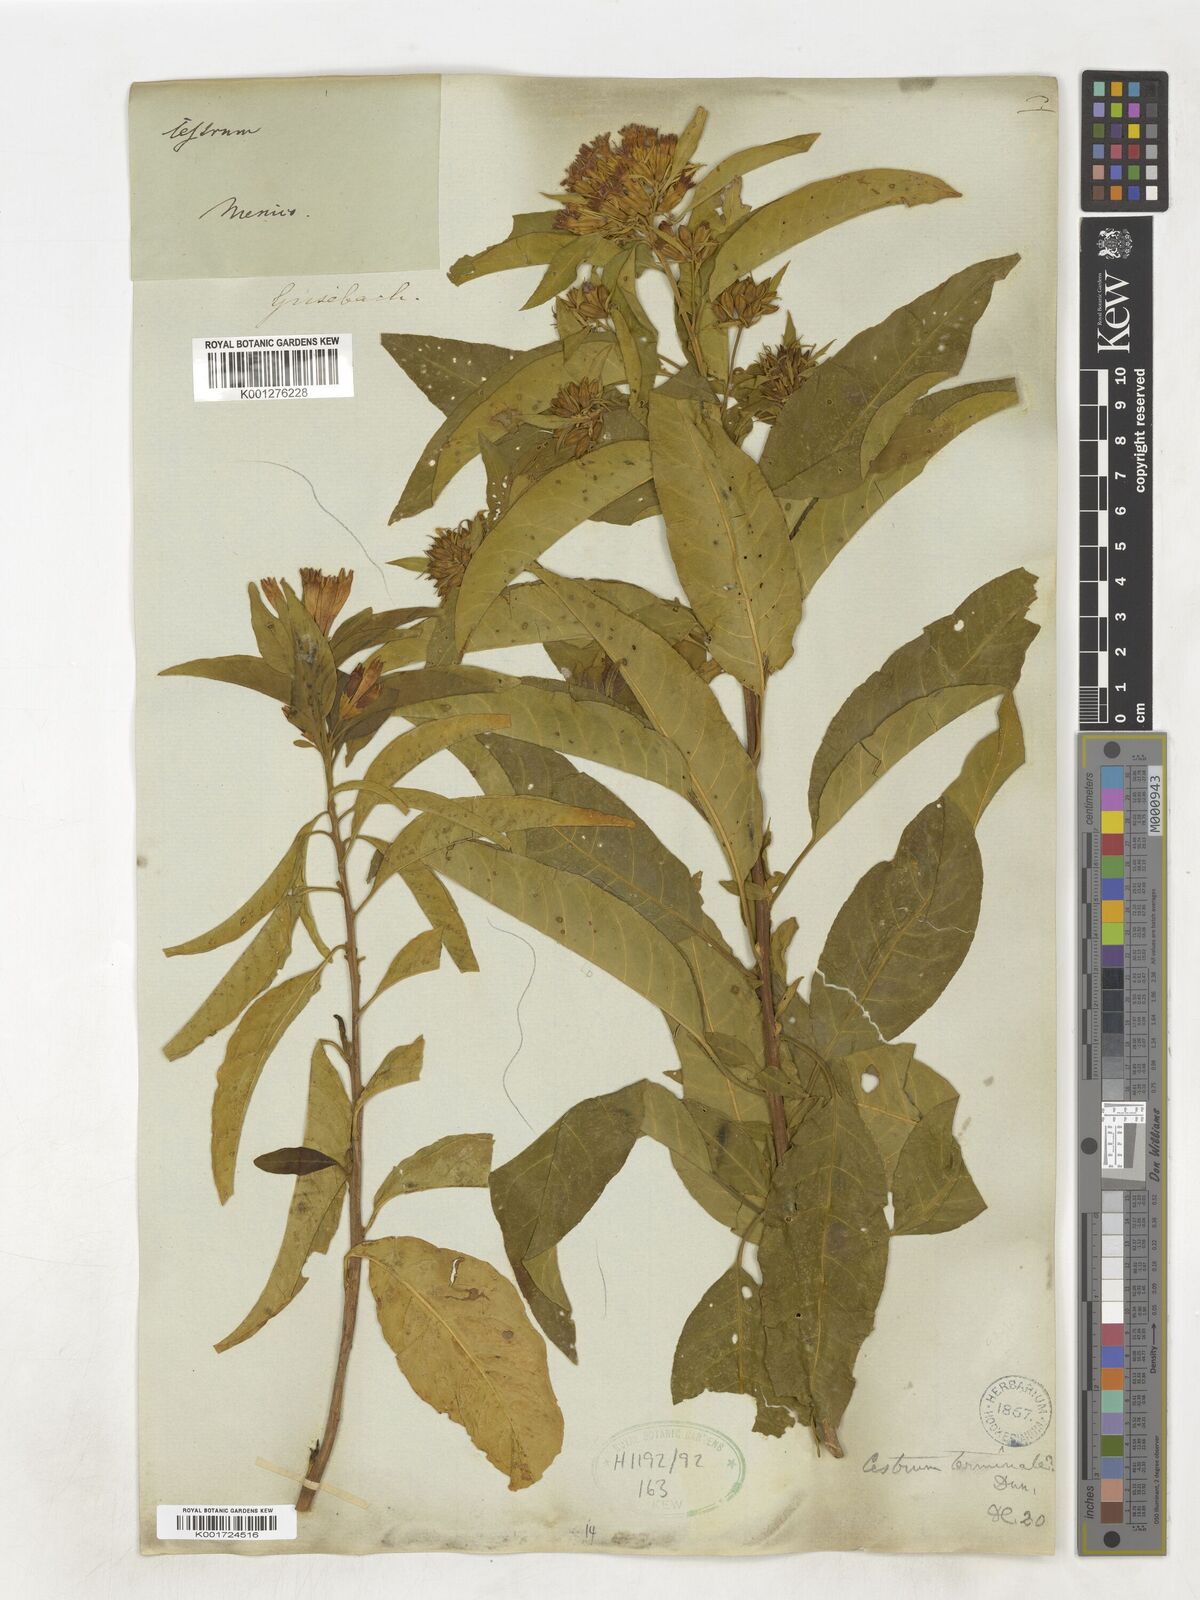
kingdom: Plantae
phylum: Tracheophyta
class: Magnoliopsida
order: Solanales
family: Solanaceae
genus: Cestrum
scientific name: Cestrum
